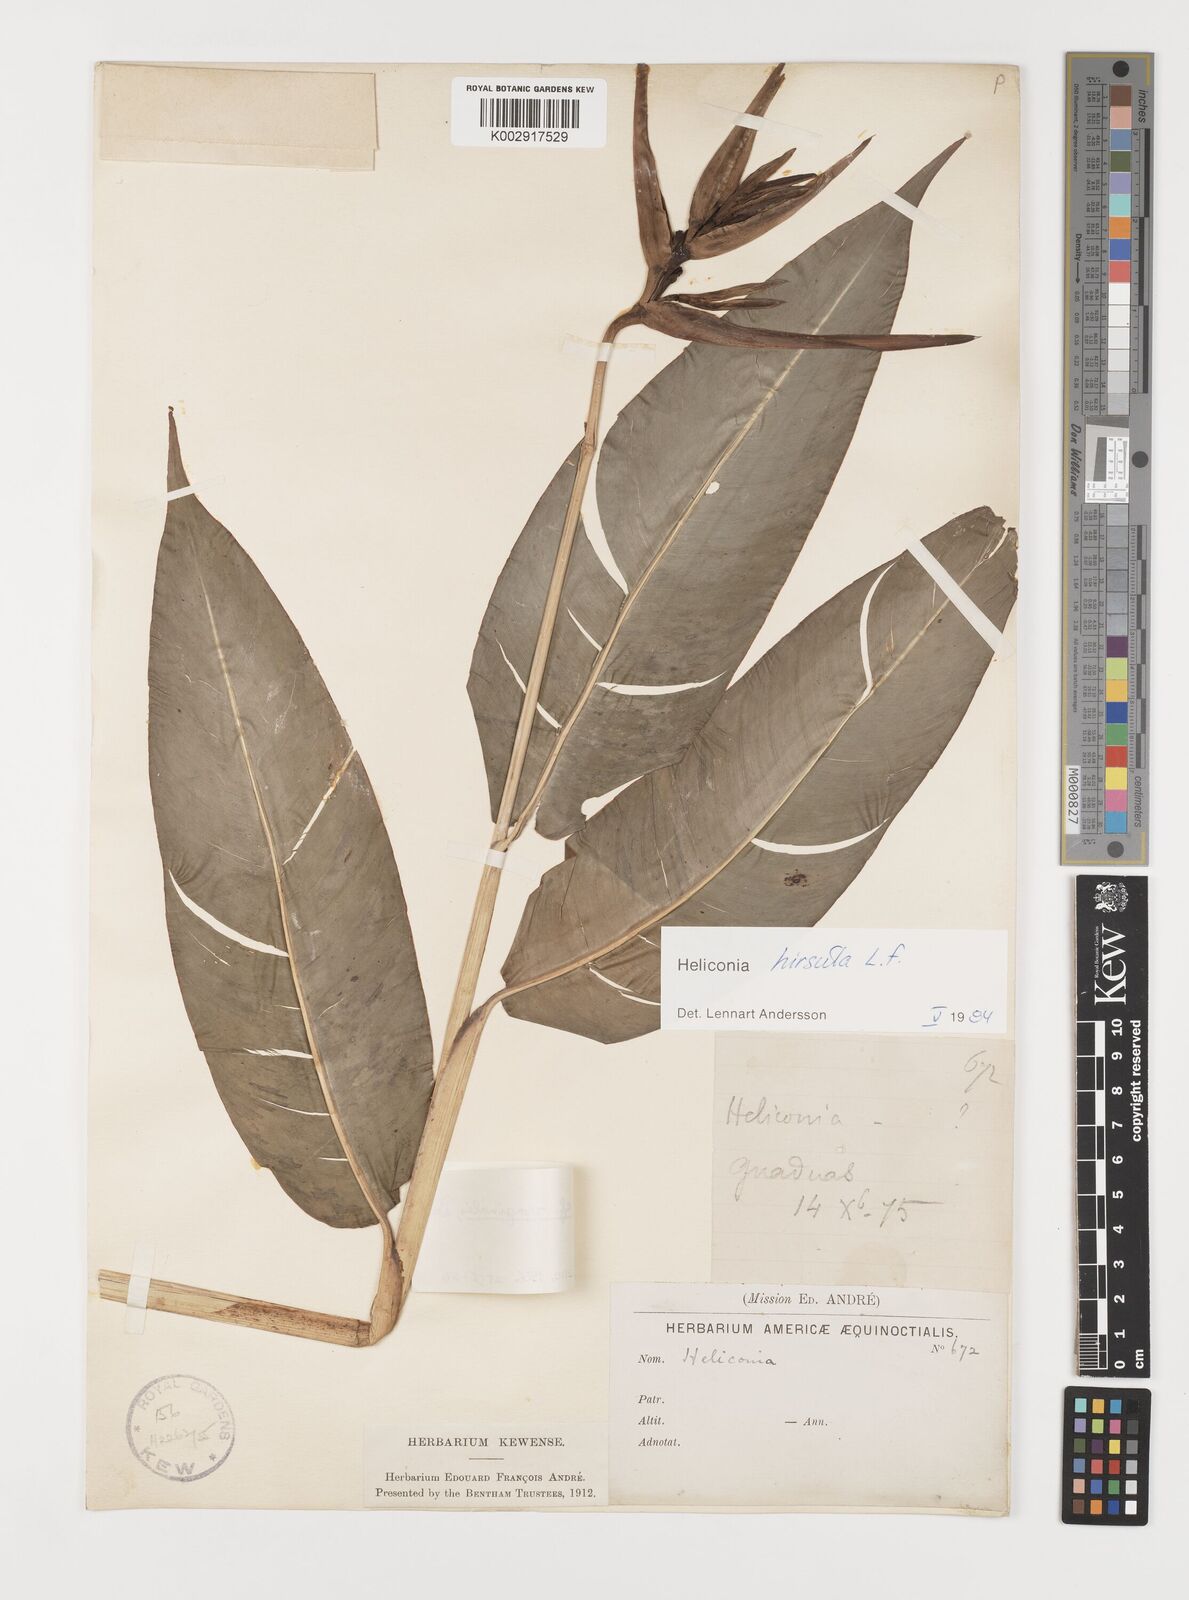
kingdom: Plantae
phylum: Tracheophyta
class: Liliopsida
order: Zingiberales
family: Heliconiaceae
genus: Heliconia
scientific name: Heliconia hirsuta
